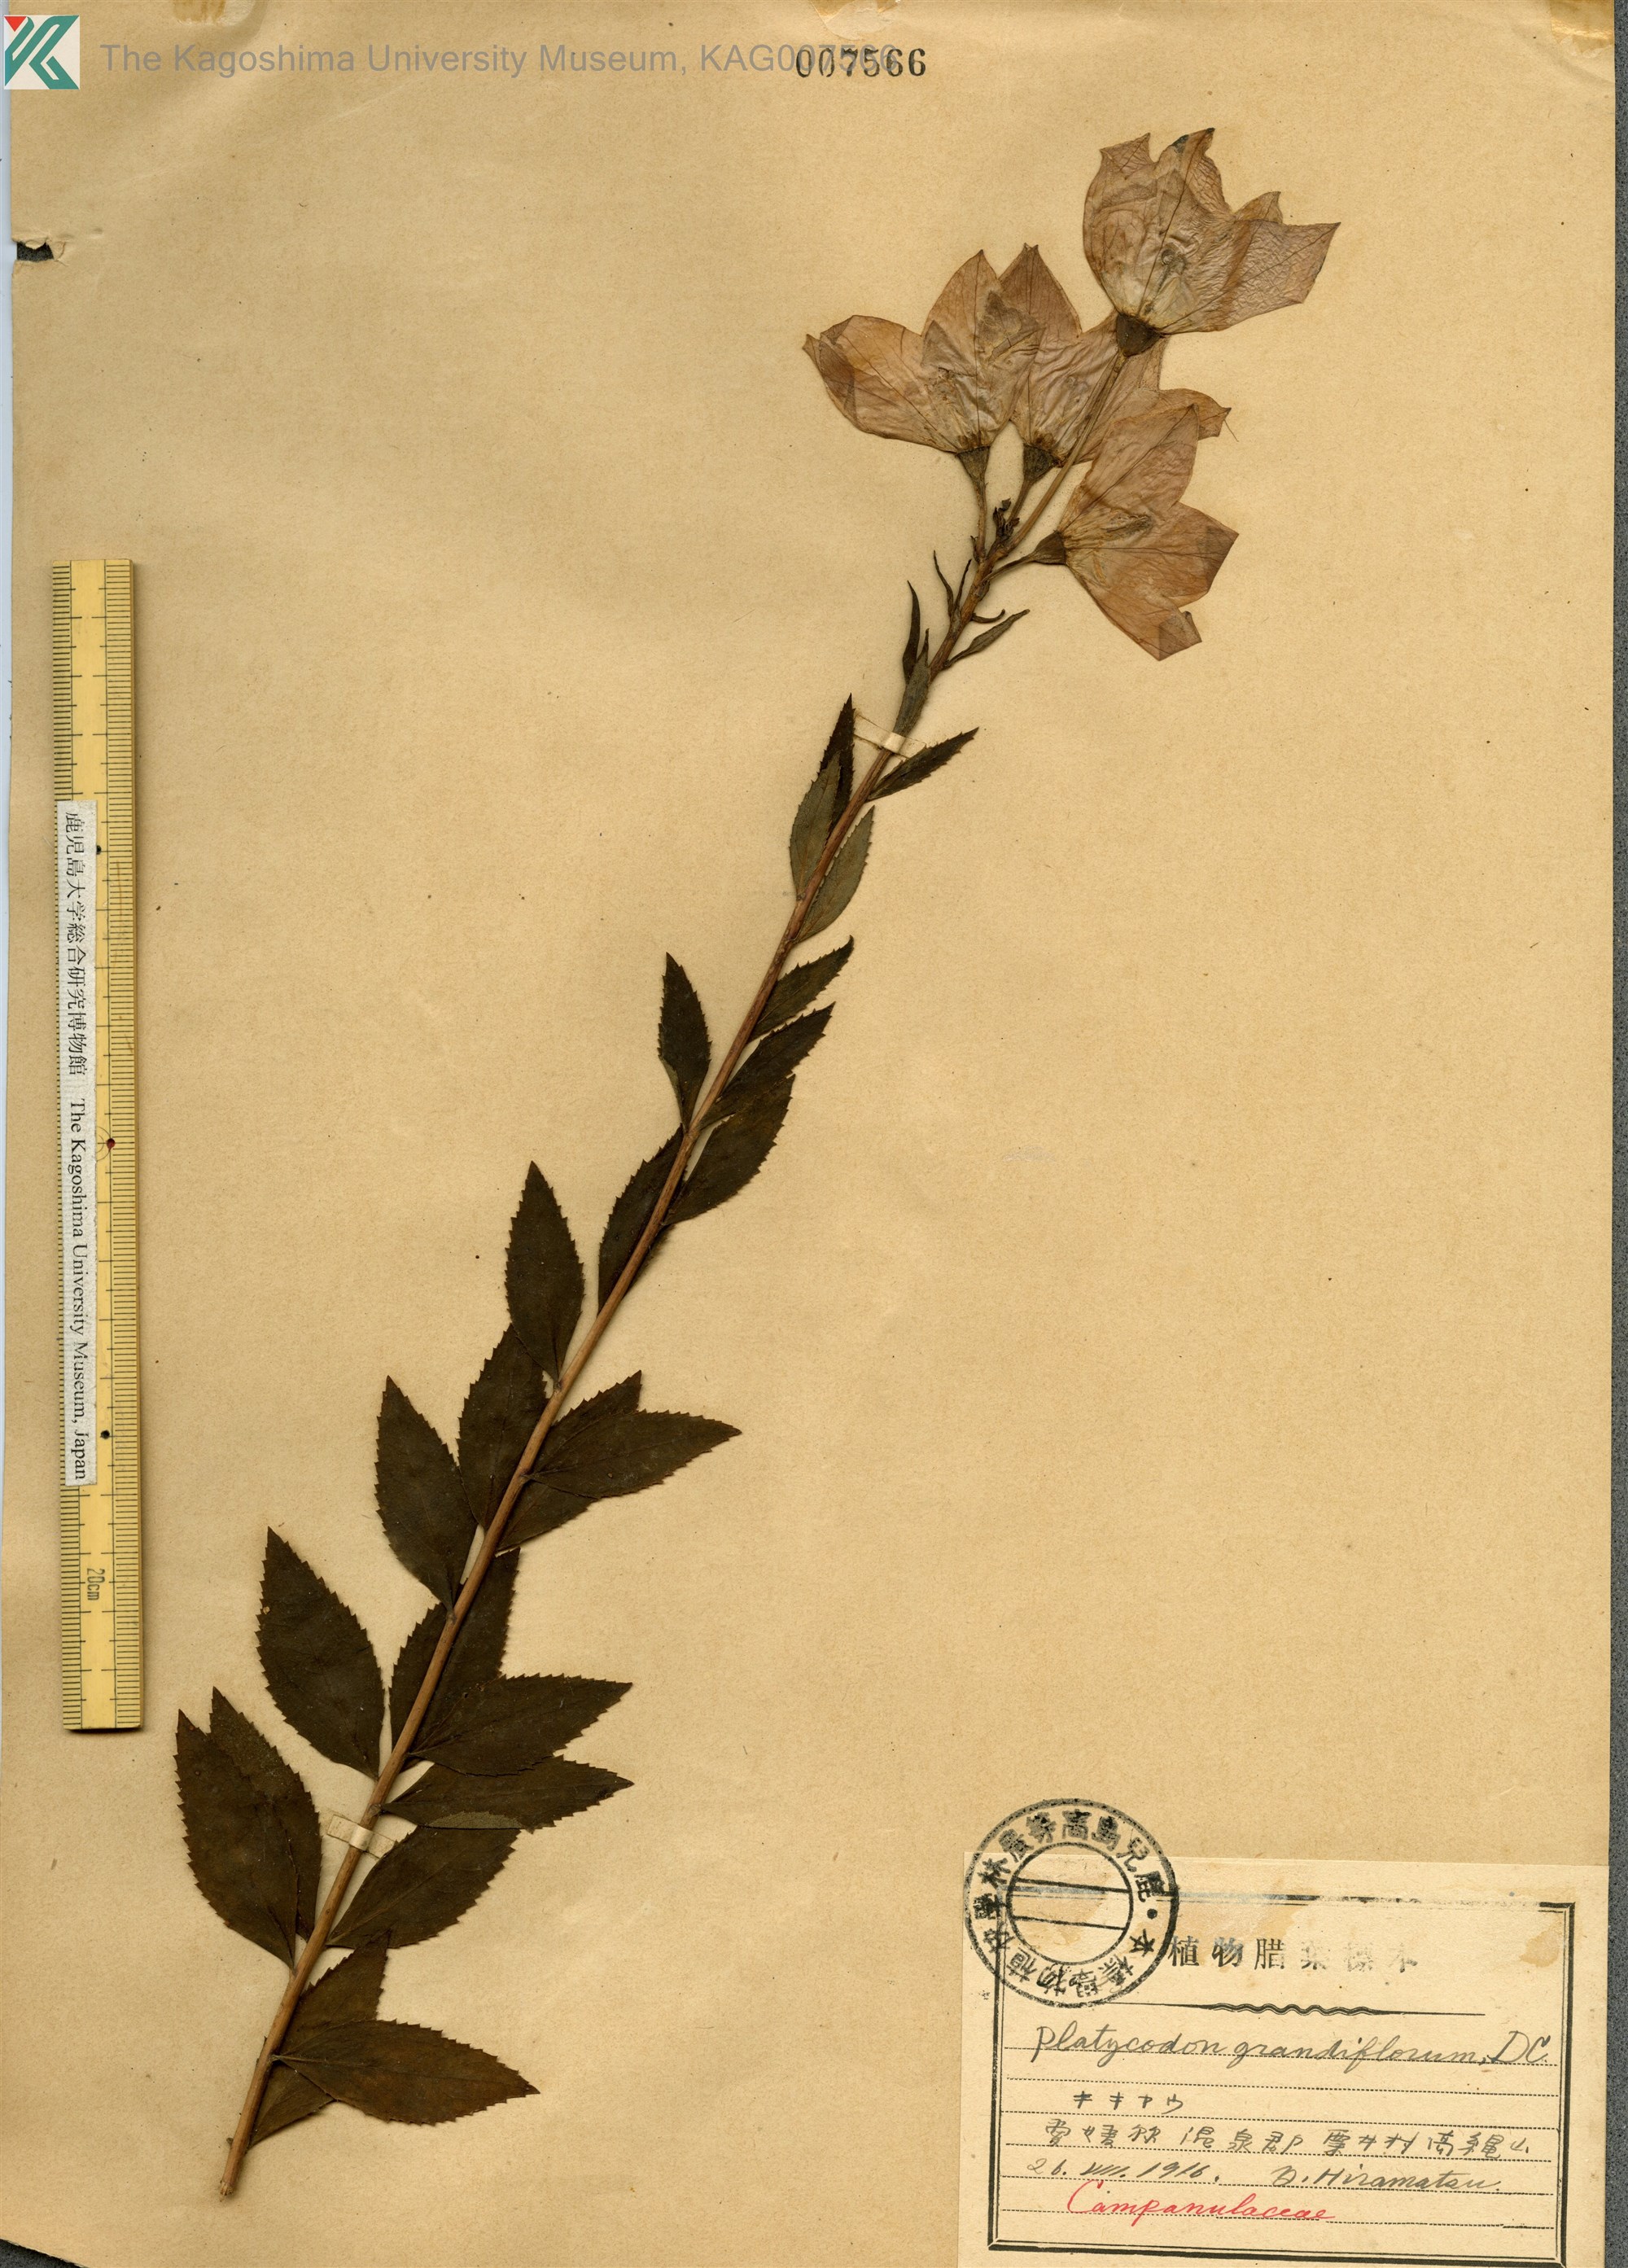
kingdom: Plantae
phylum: Tracheophyta
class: Magnoliopsida
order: Asterales
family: Campanulaceae
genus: Platycodon
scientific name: Platycodon grandiflorus
